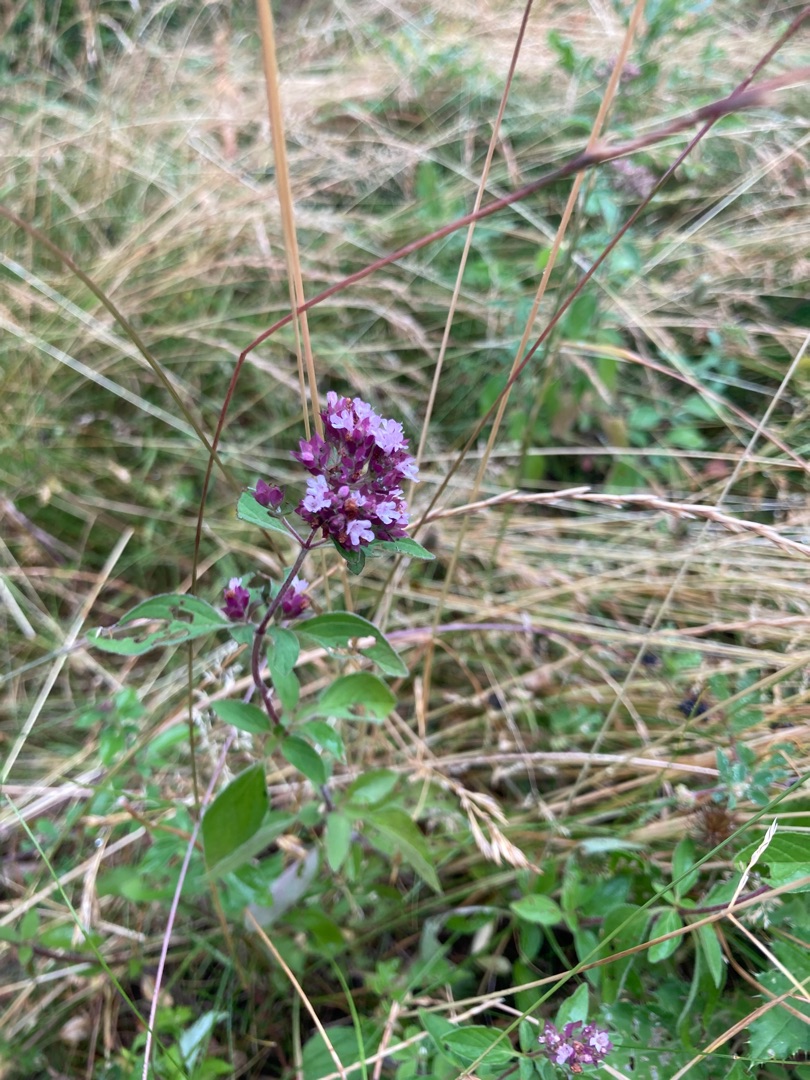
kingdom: Plantae
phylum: Tracheophyta
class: Magnoliopsida
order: Lamiales
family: Lamiaceae
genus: Origanum
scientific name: Origanum vulgare
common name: Merian
